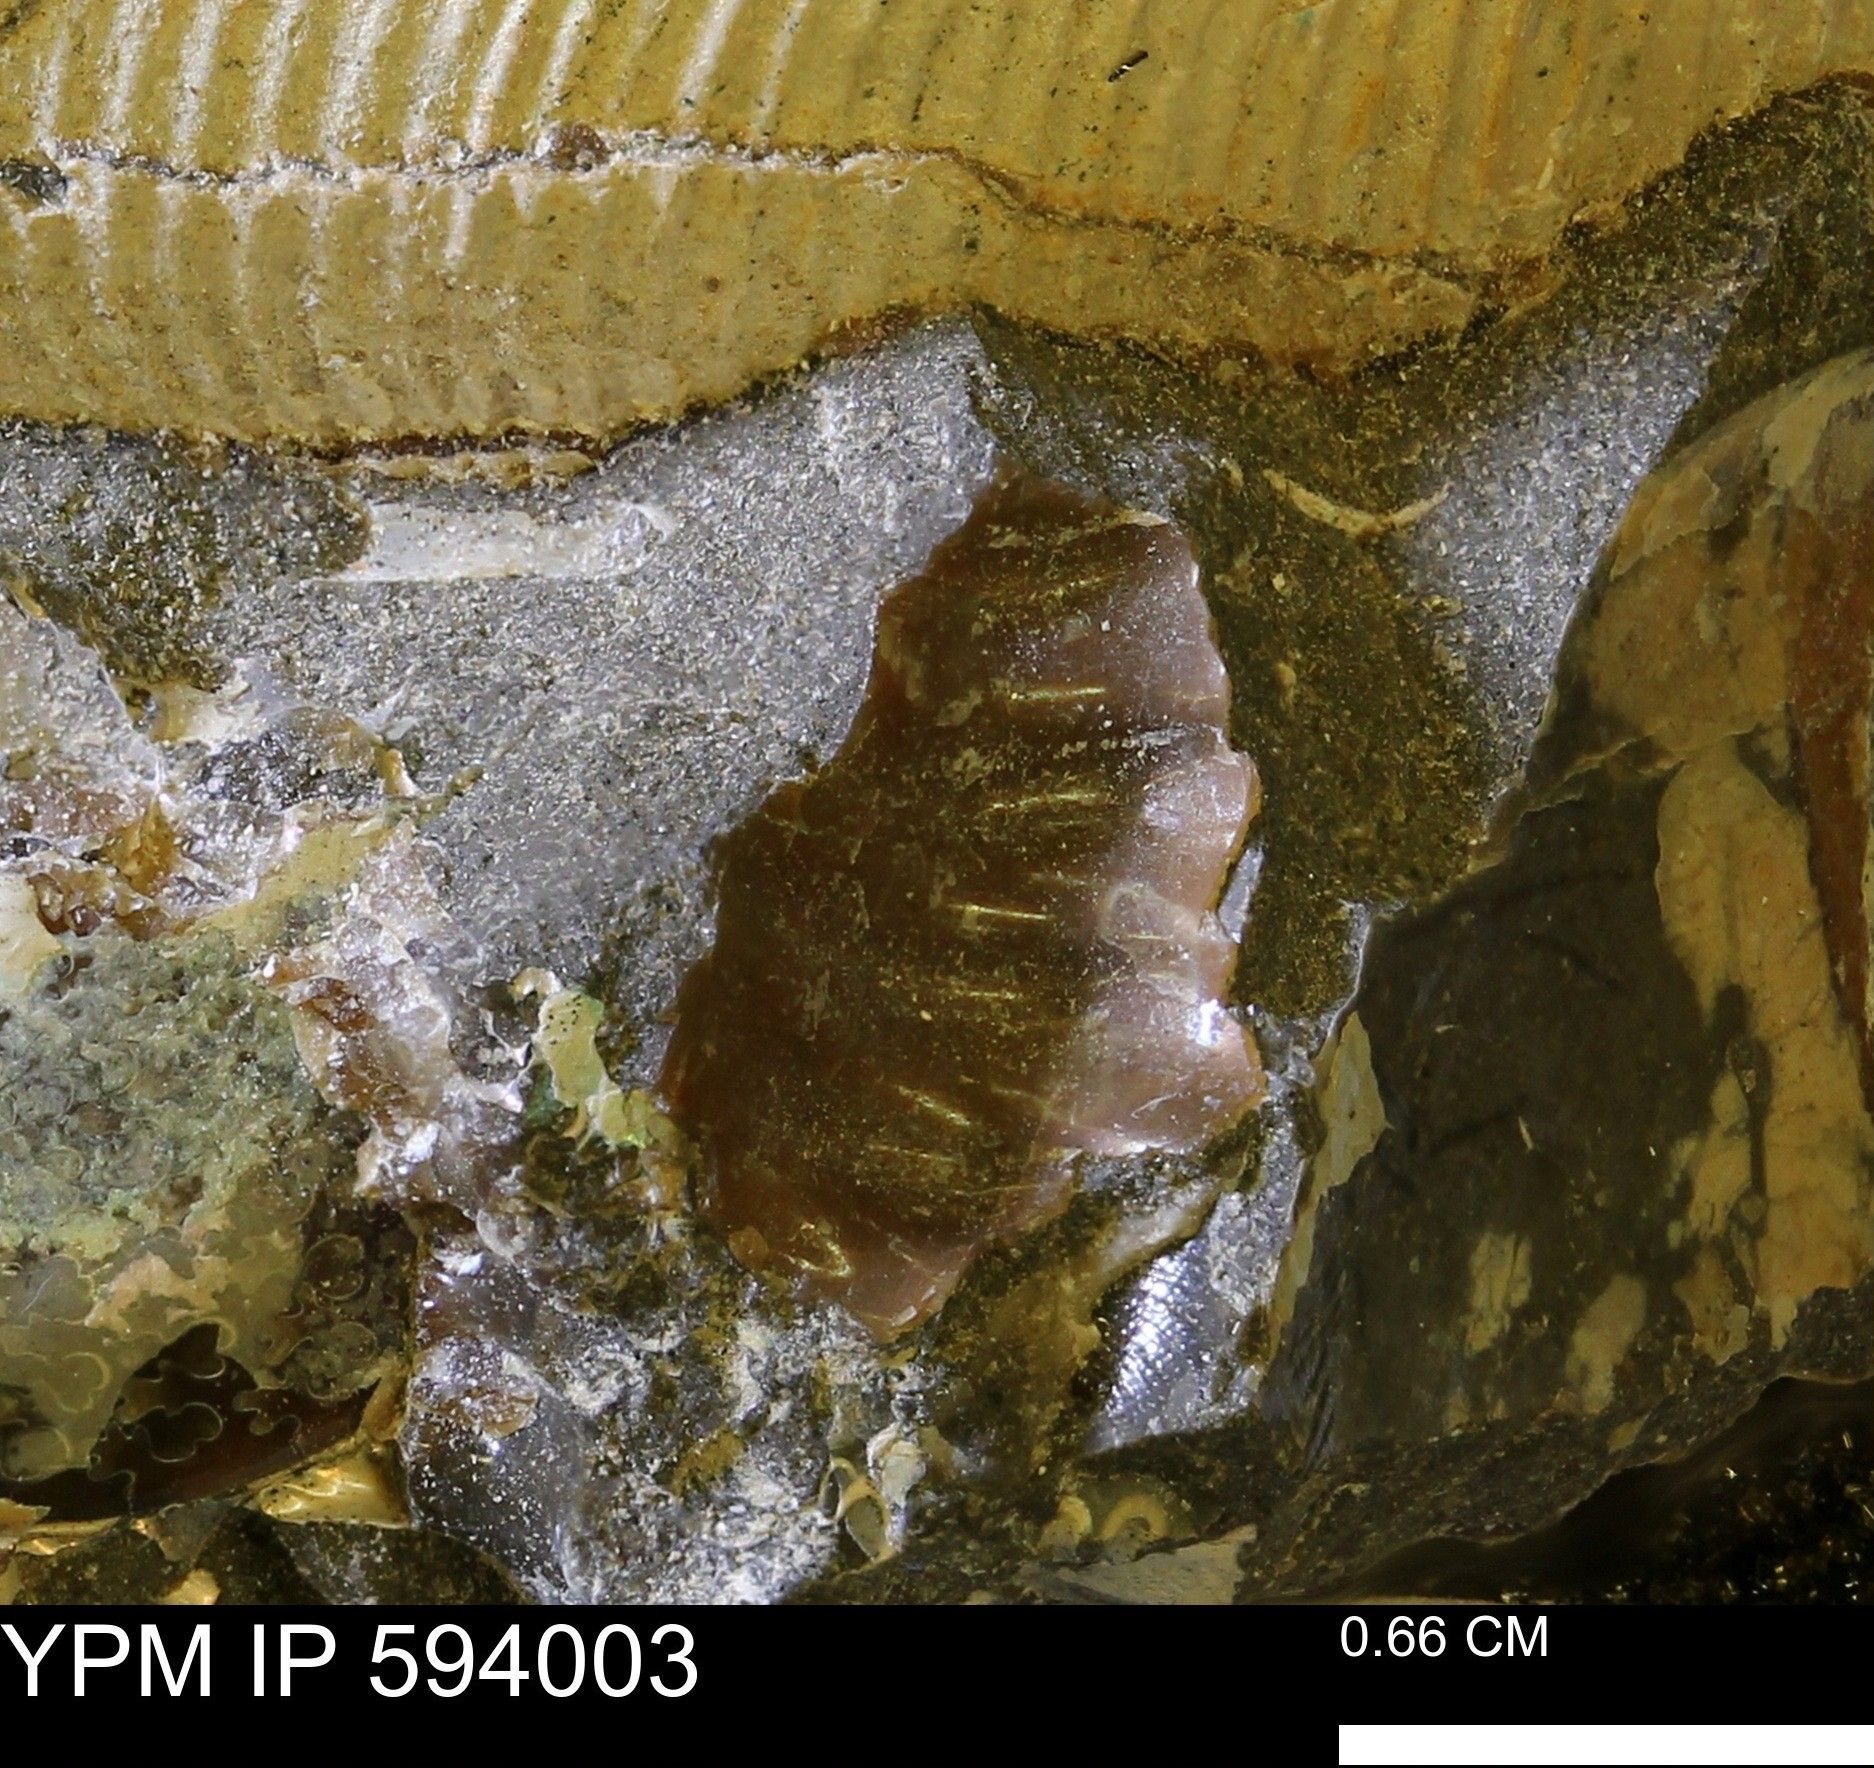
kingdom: Animalia
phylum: Mollusca
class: Cephalopoda
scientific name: Cephalopoda
